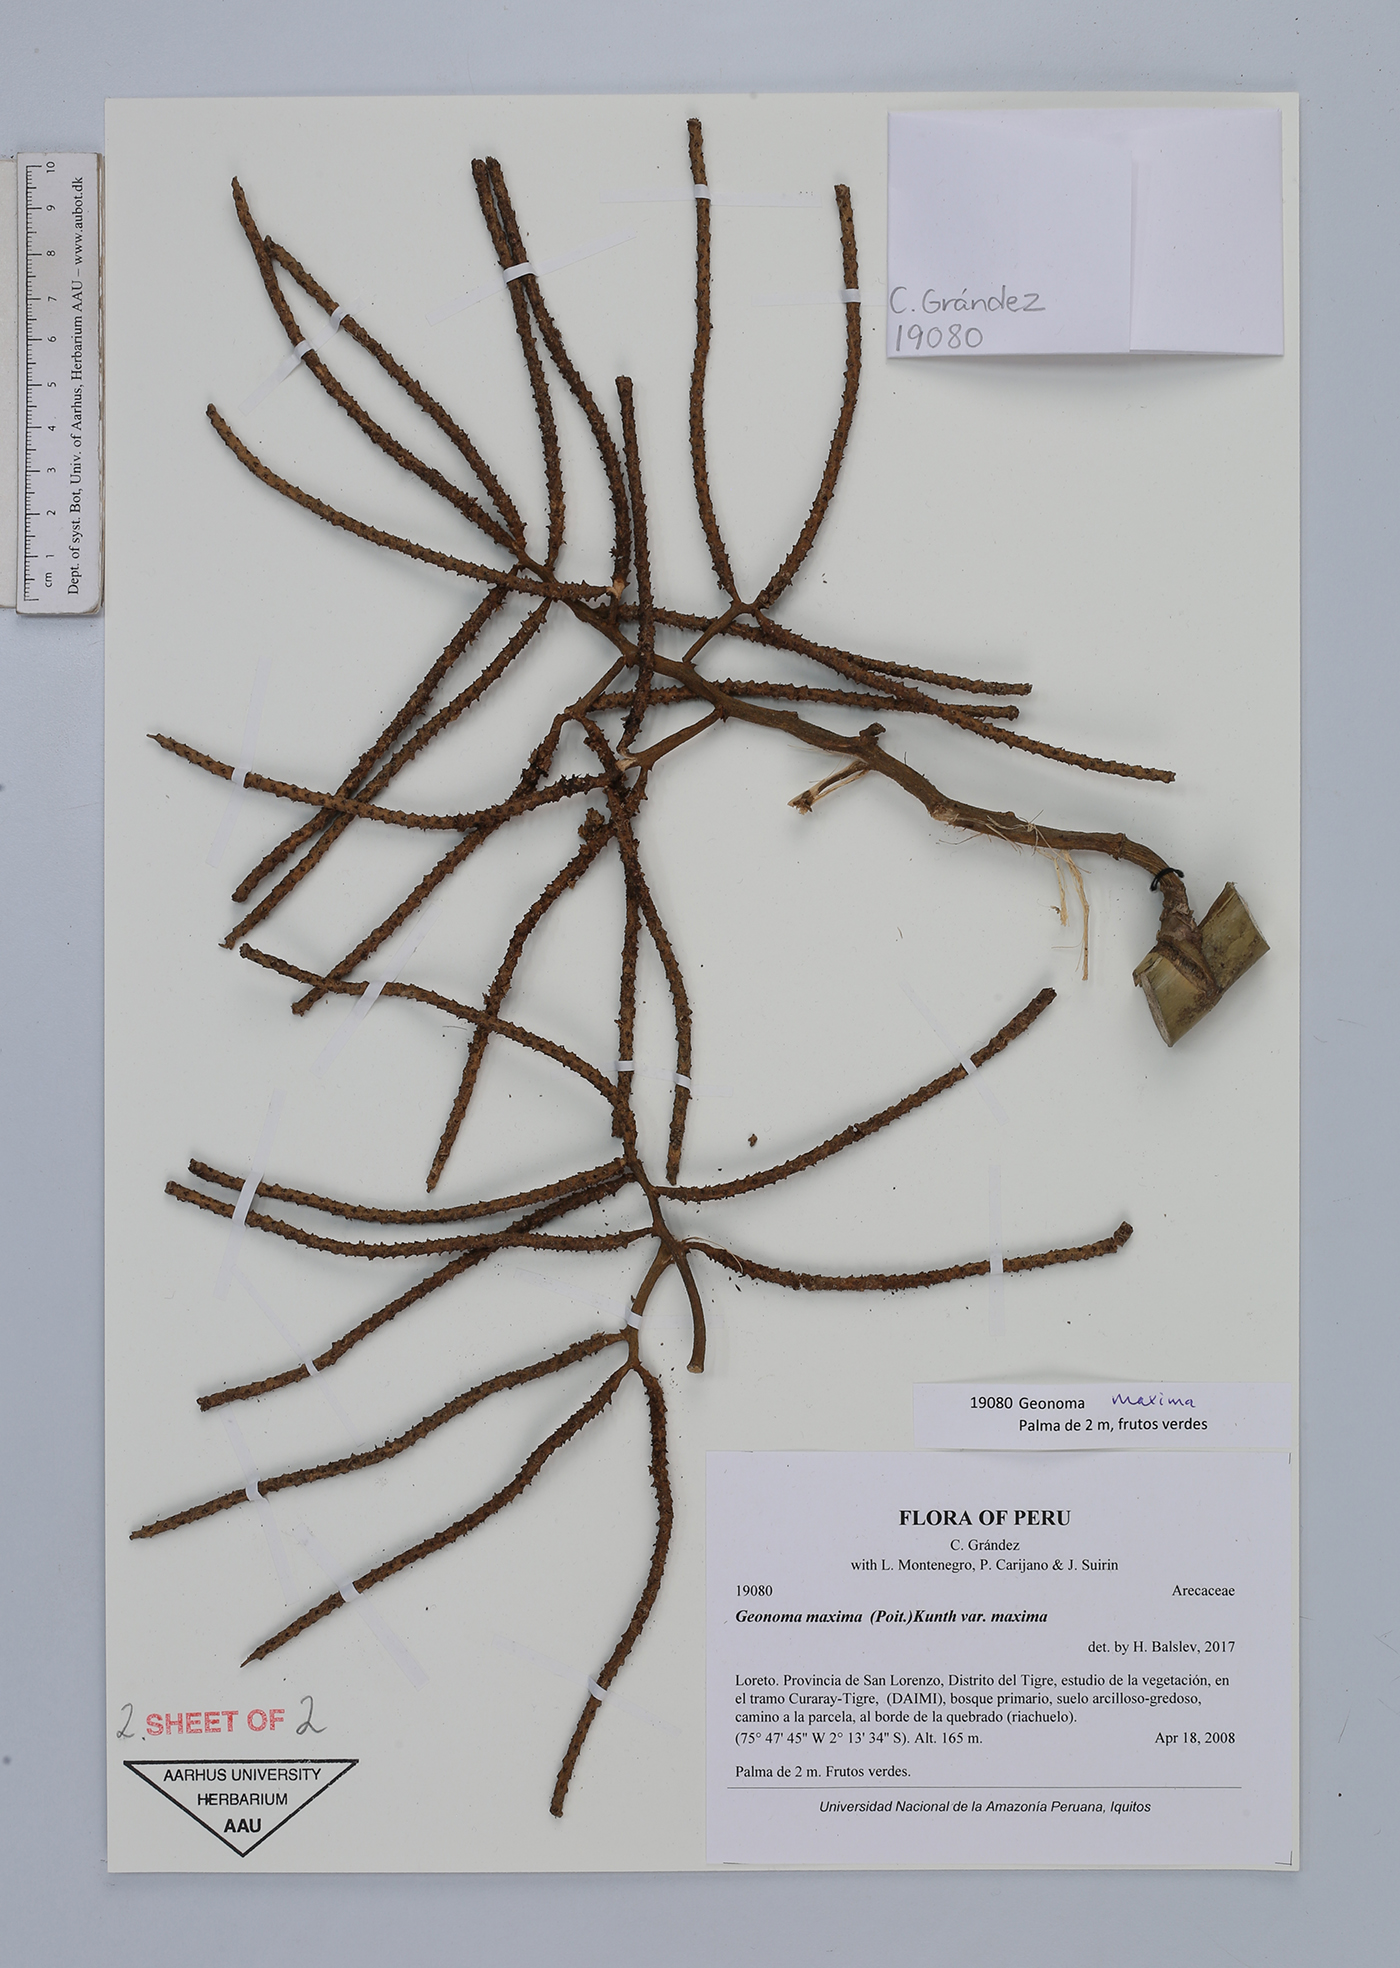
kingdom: Plantae
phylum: Tracheophyta
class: Liliopsida
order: Arecales
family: Arecaceae
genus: Geonoma
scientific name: Geonoma maxima
